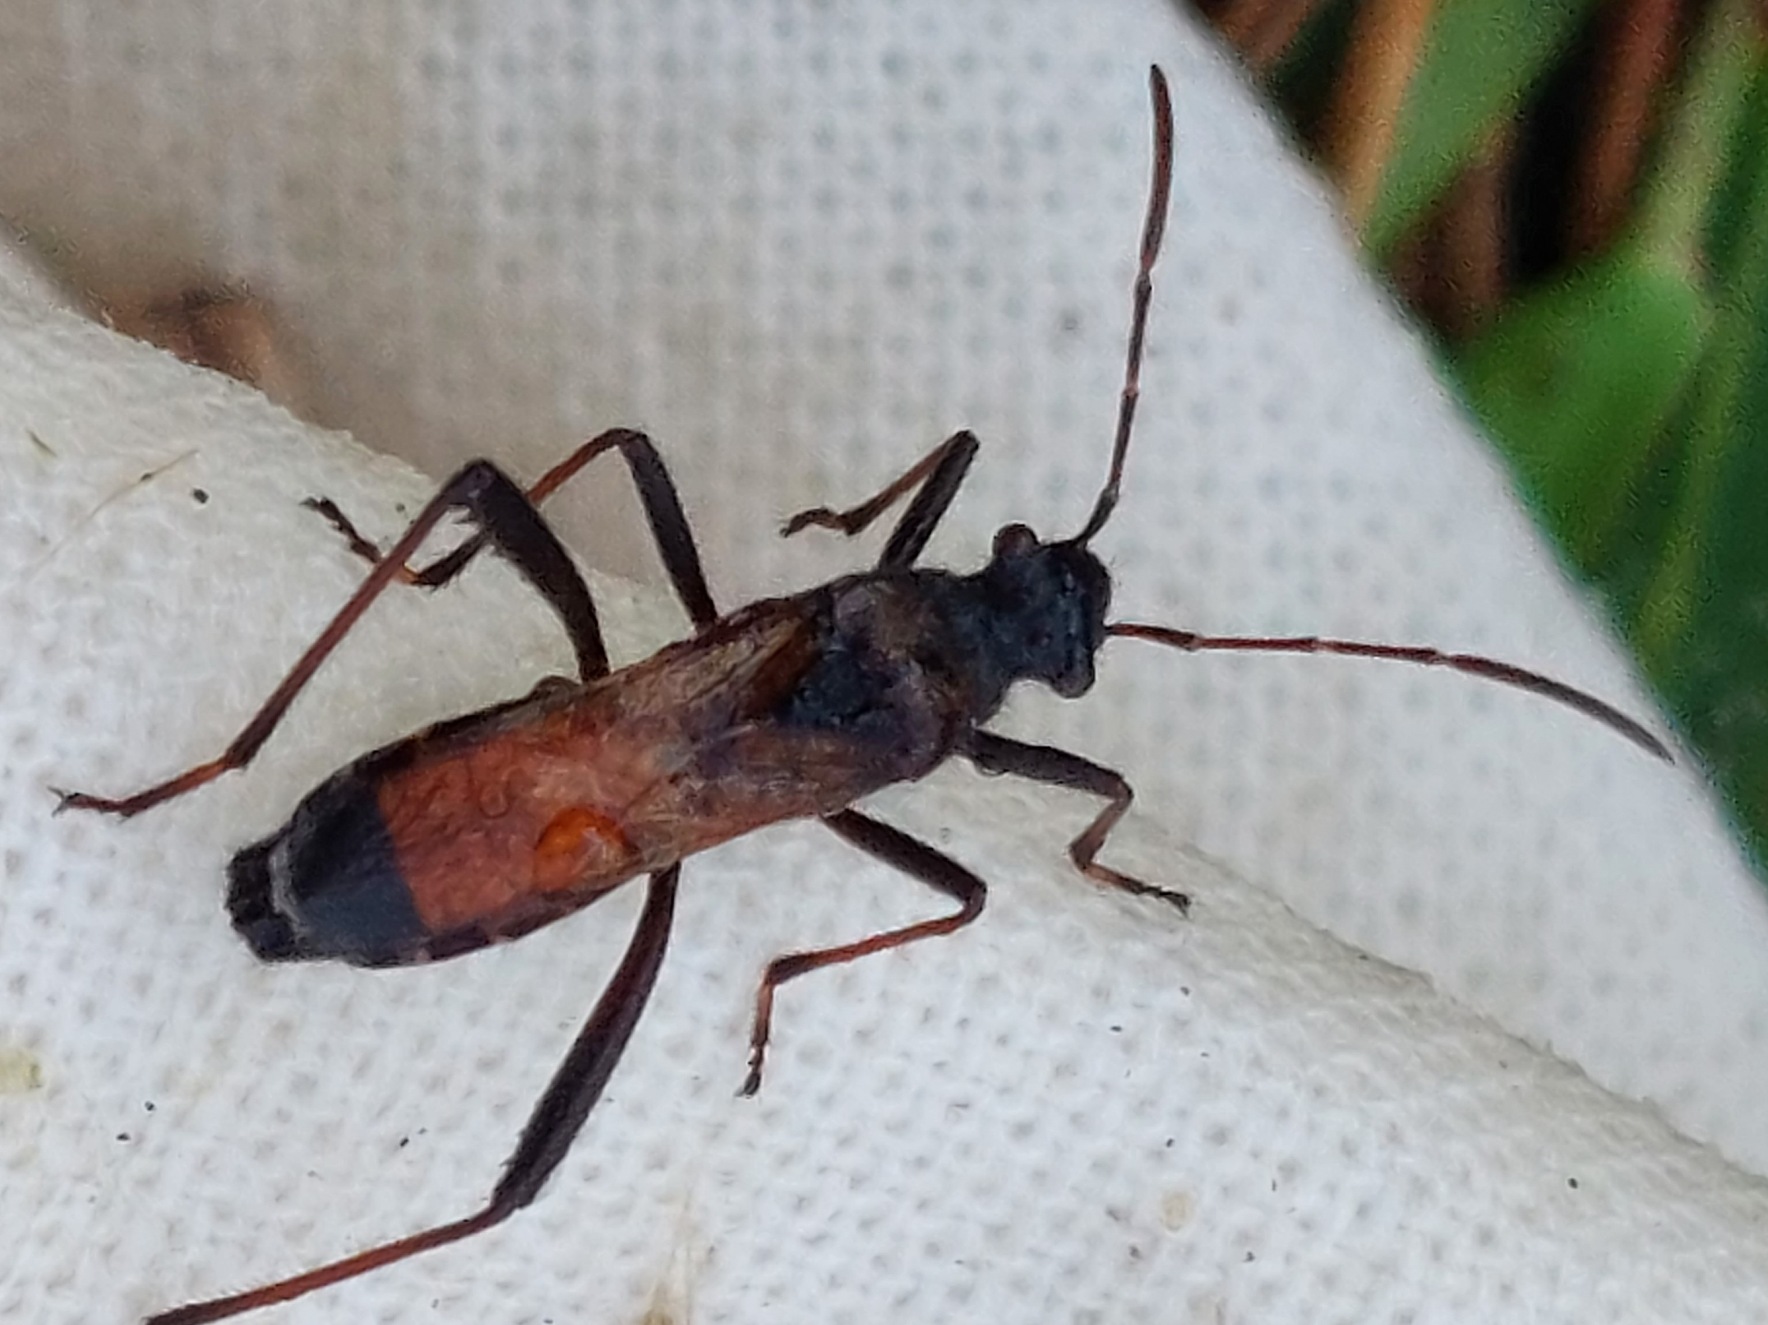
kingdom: Animalia
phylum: Arthropoda
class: Insecta
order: Hemiptera
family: Alydidae
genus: Alydus
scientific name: Alydus calcaratus
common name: Hvepsetæge
